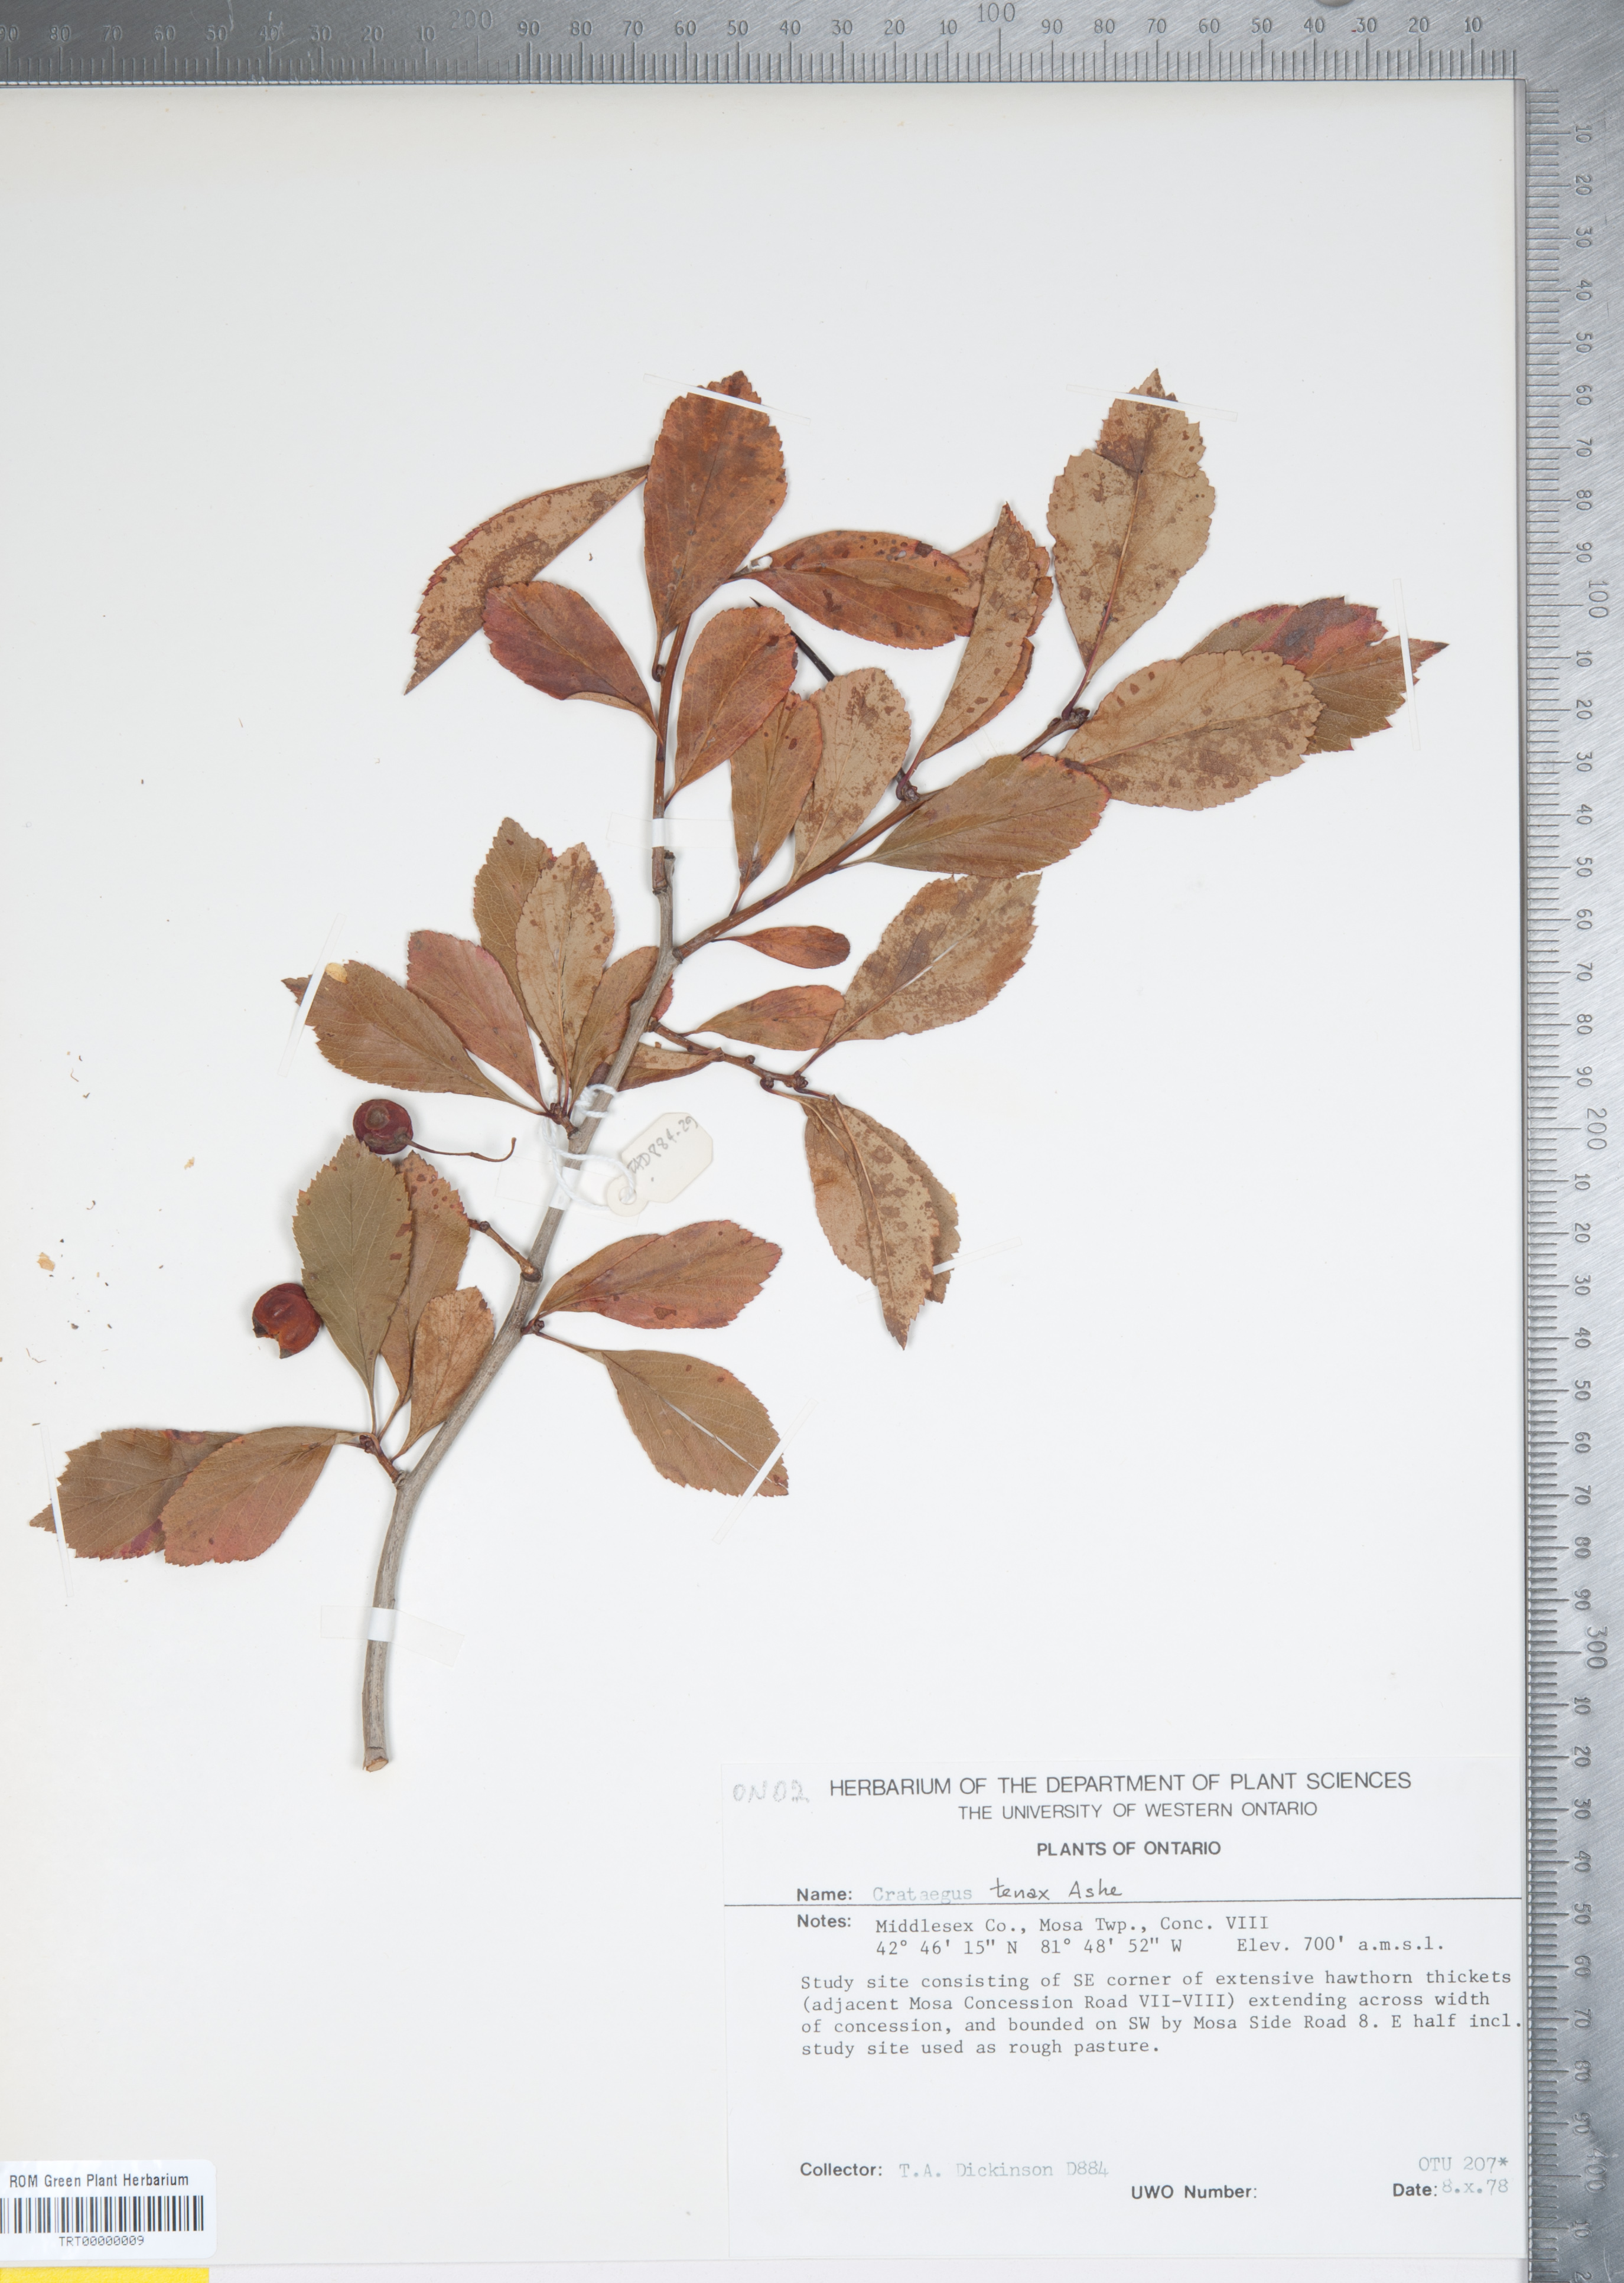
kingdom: Plantae
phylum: Tracheophyta
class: Magnoliopsida
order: Rosales
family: Rosaceae
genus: Crataegus
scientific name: Crataegus crus-galli
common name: Cockspurthorn
